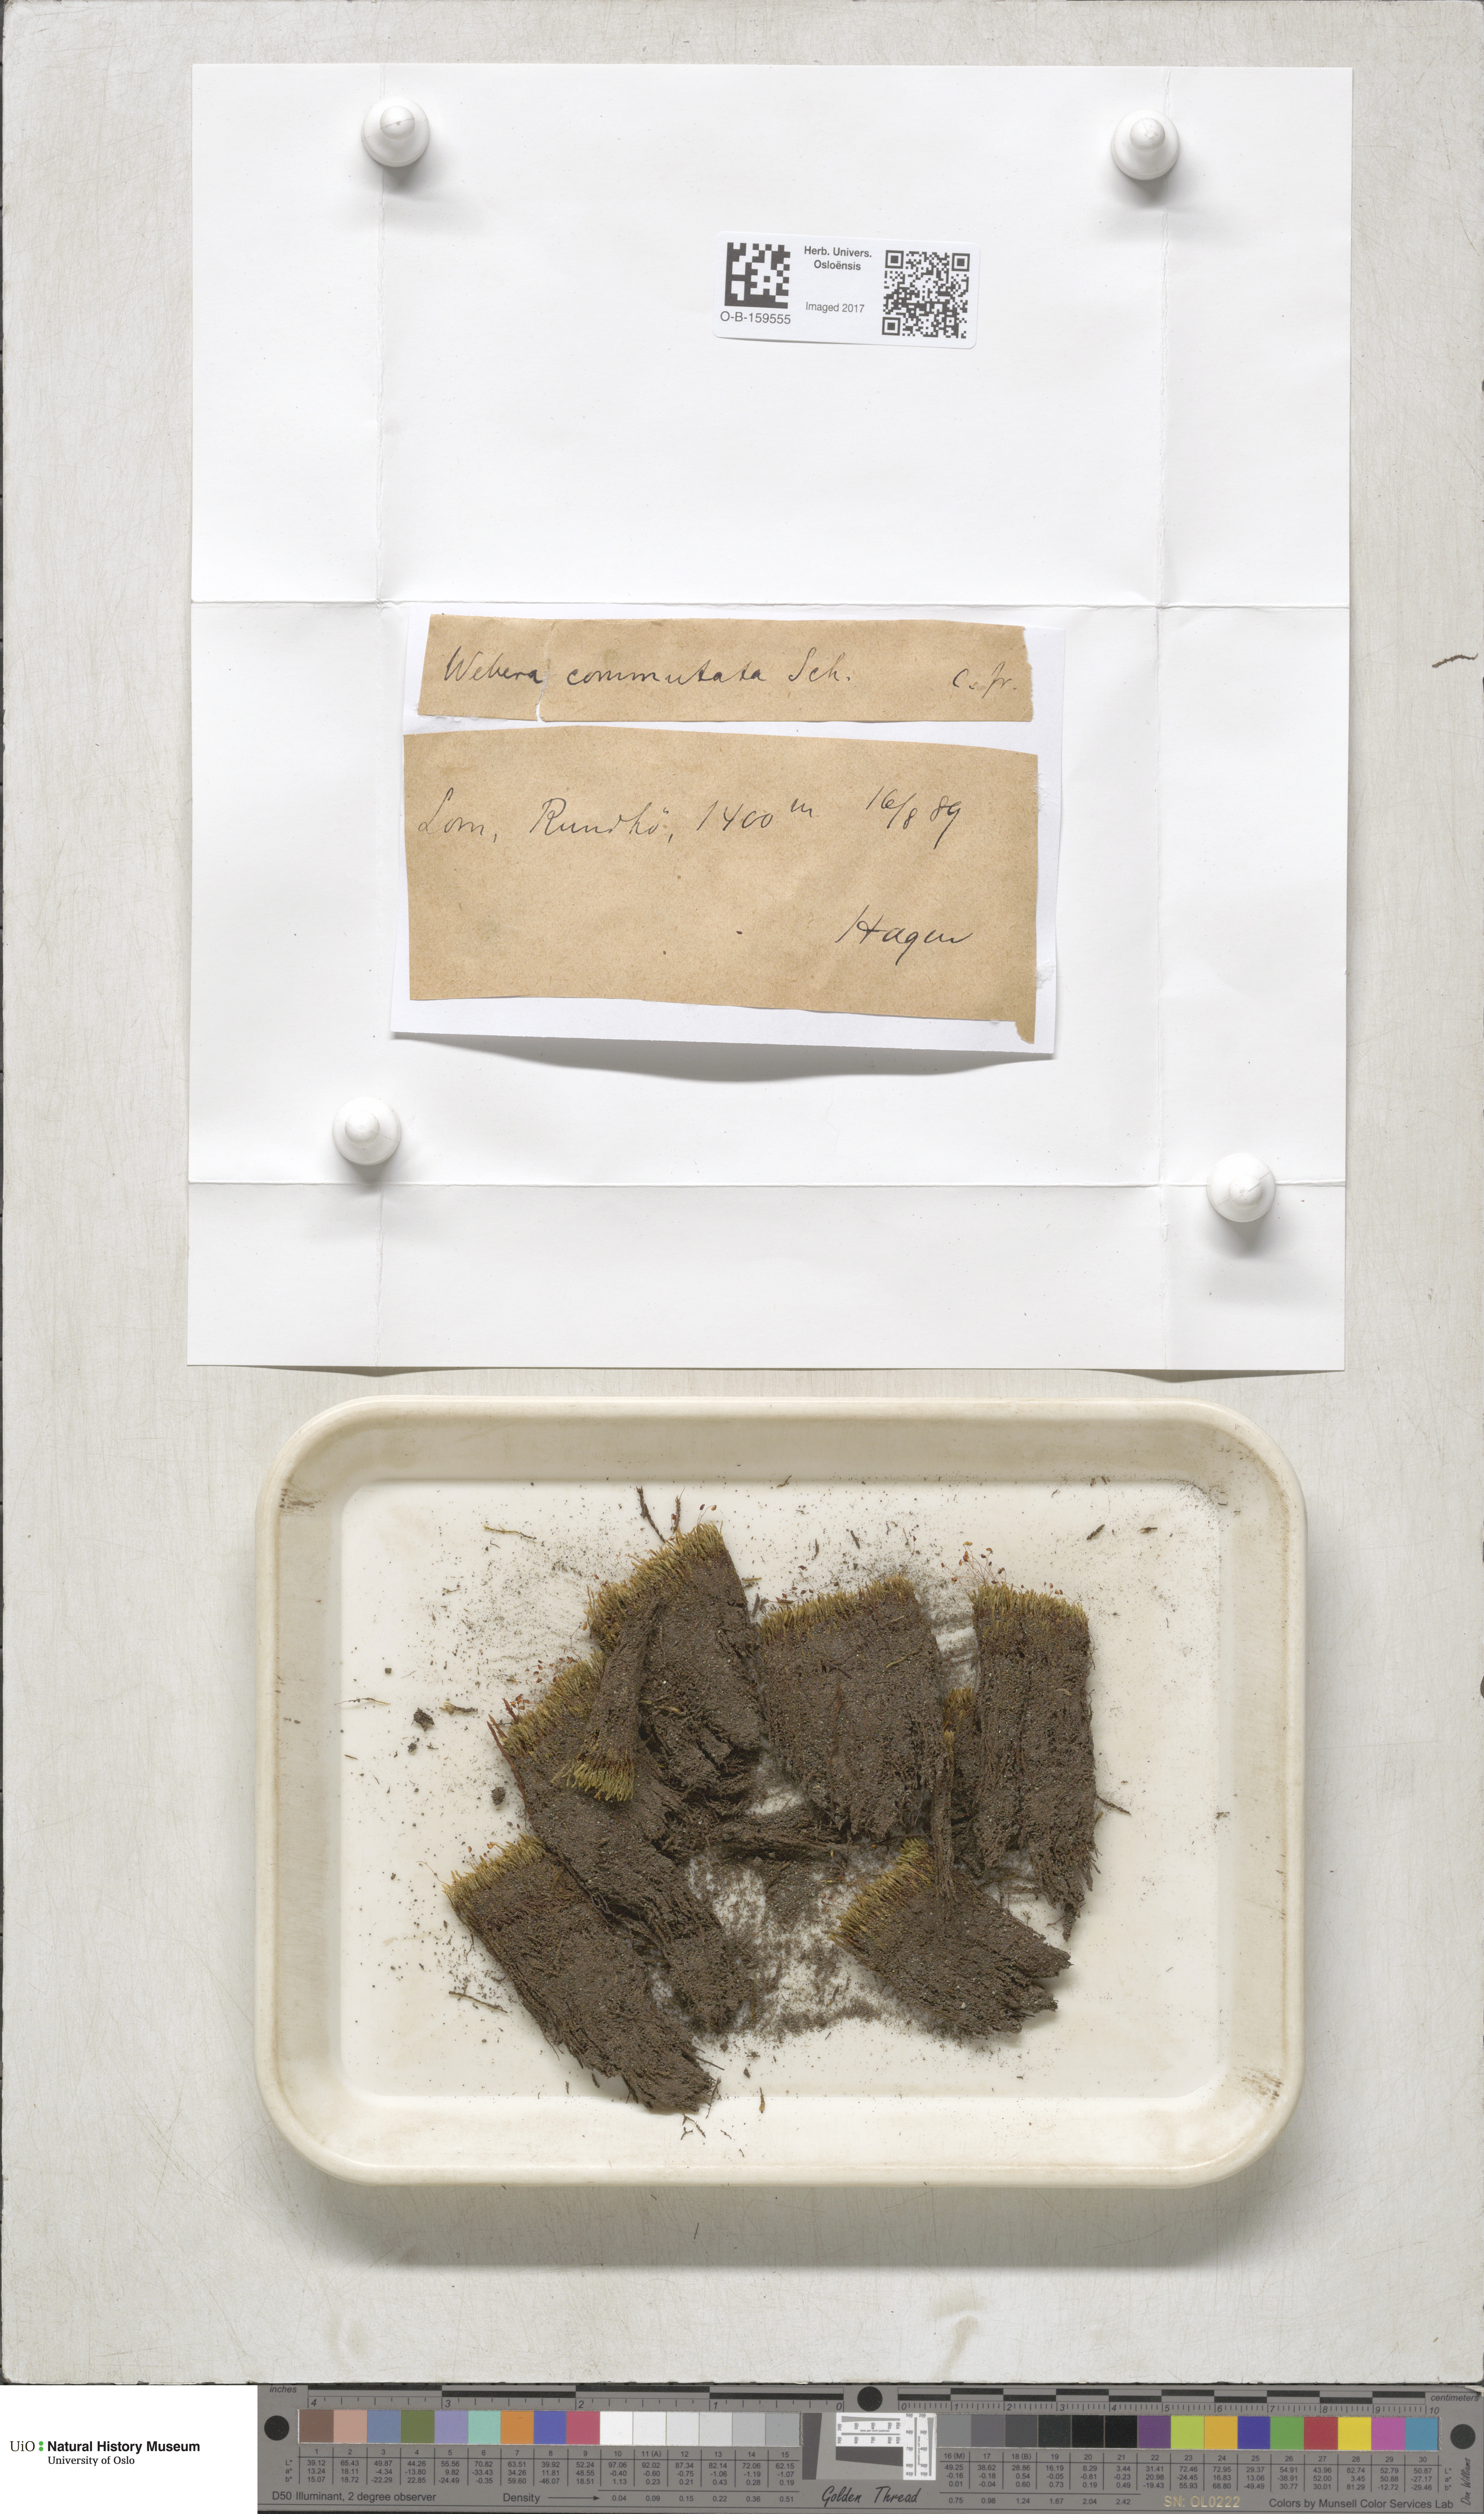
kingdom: Plantae
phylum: Bryophyta
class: Bryopsida
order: Bryales
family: Mniaceae
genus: Pohlia
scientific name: Pohlia drummondii
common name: Drummond's nodding moss
